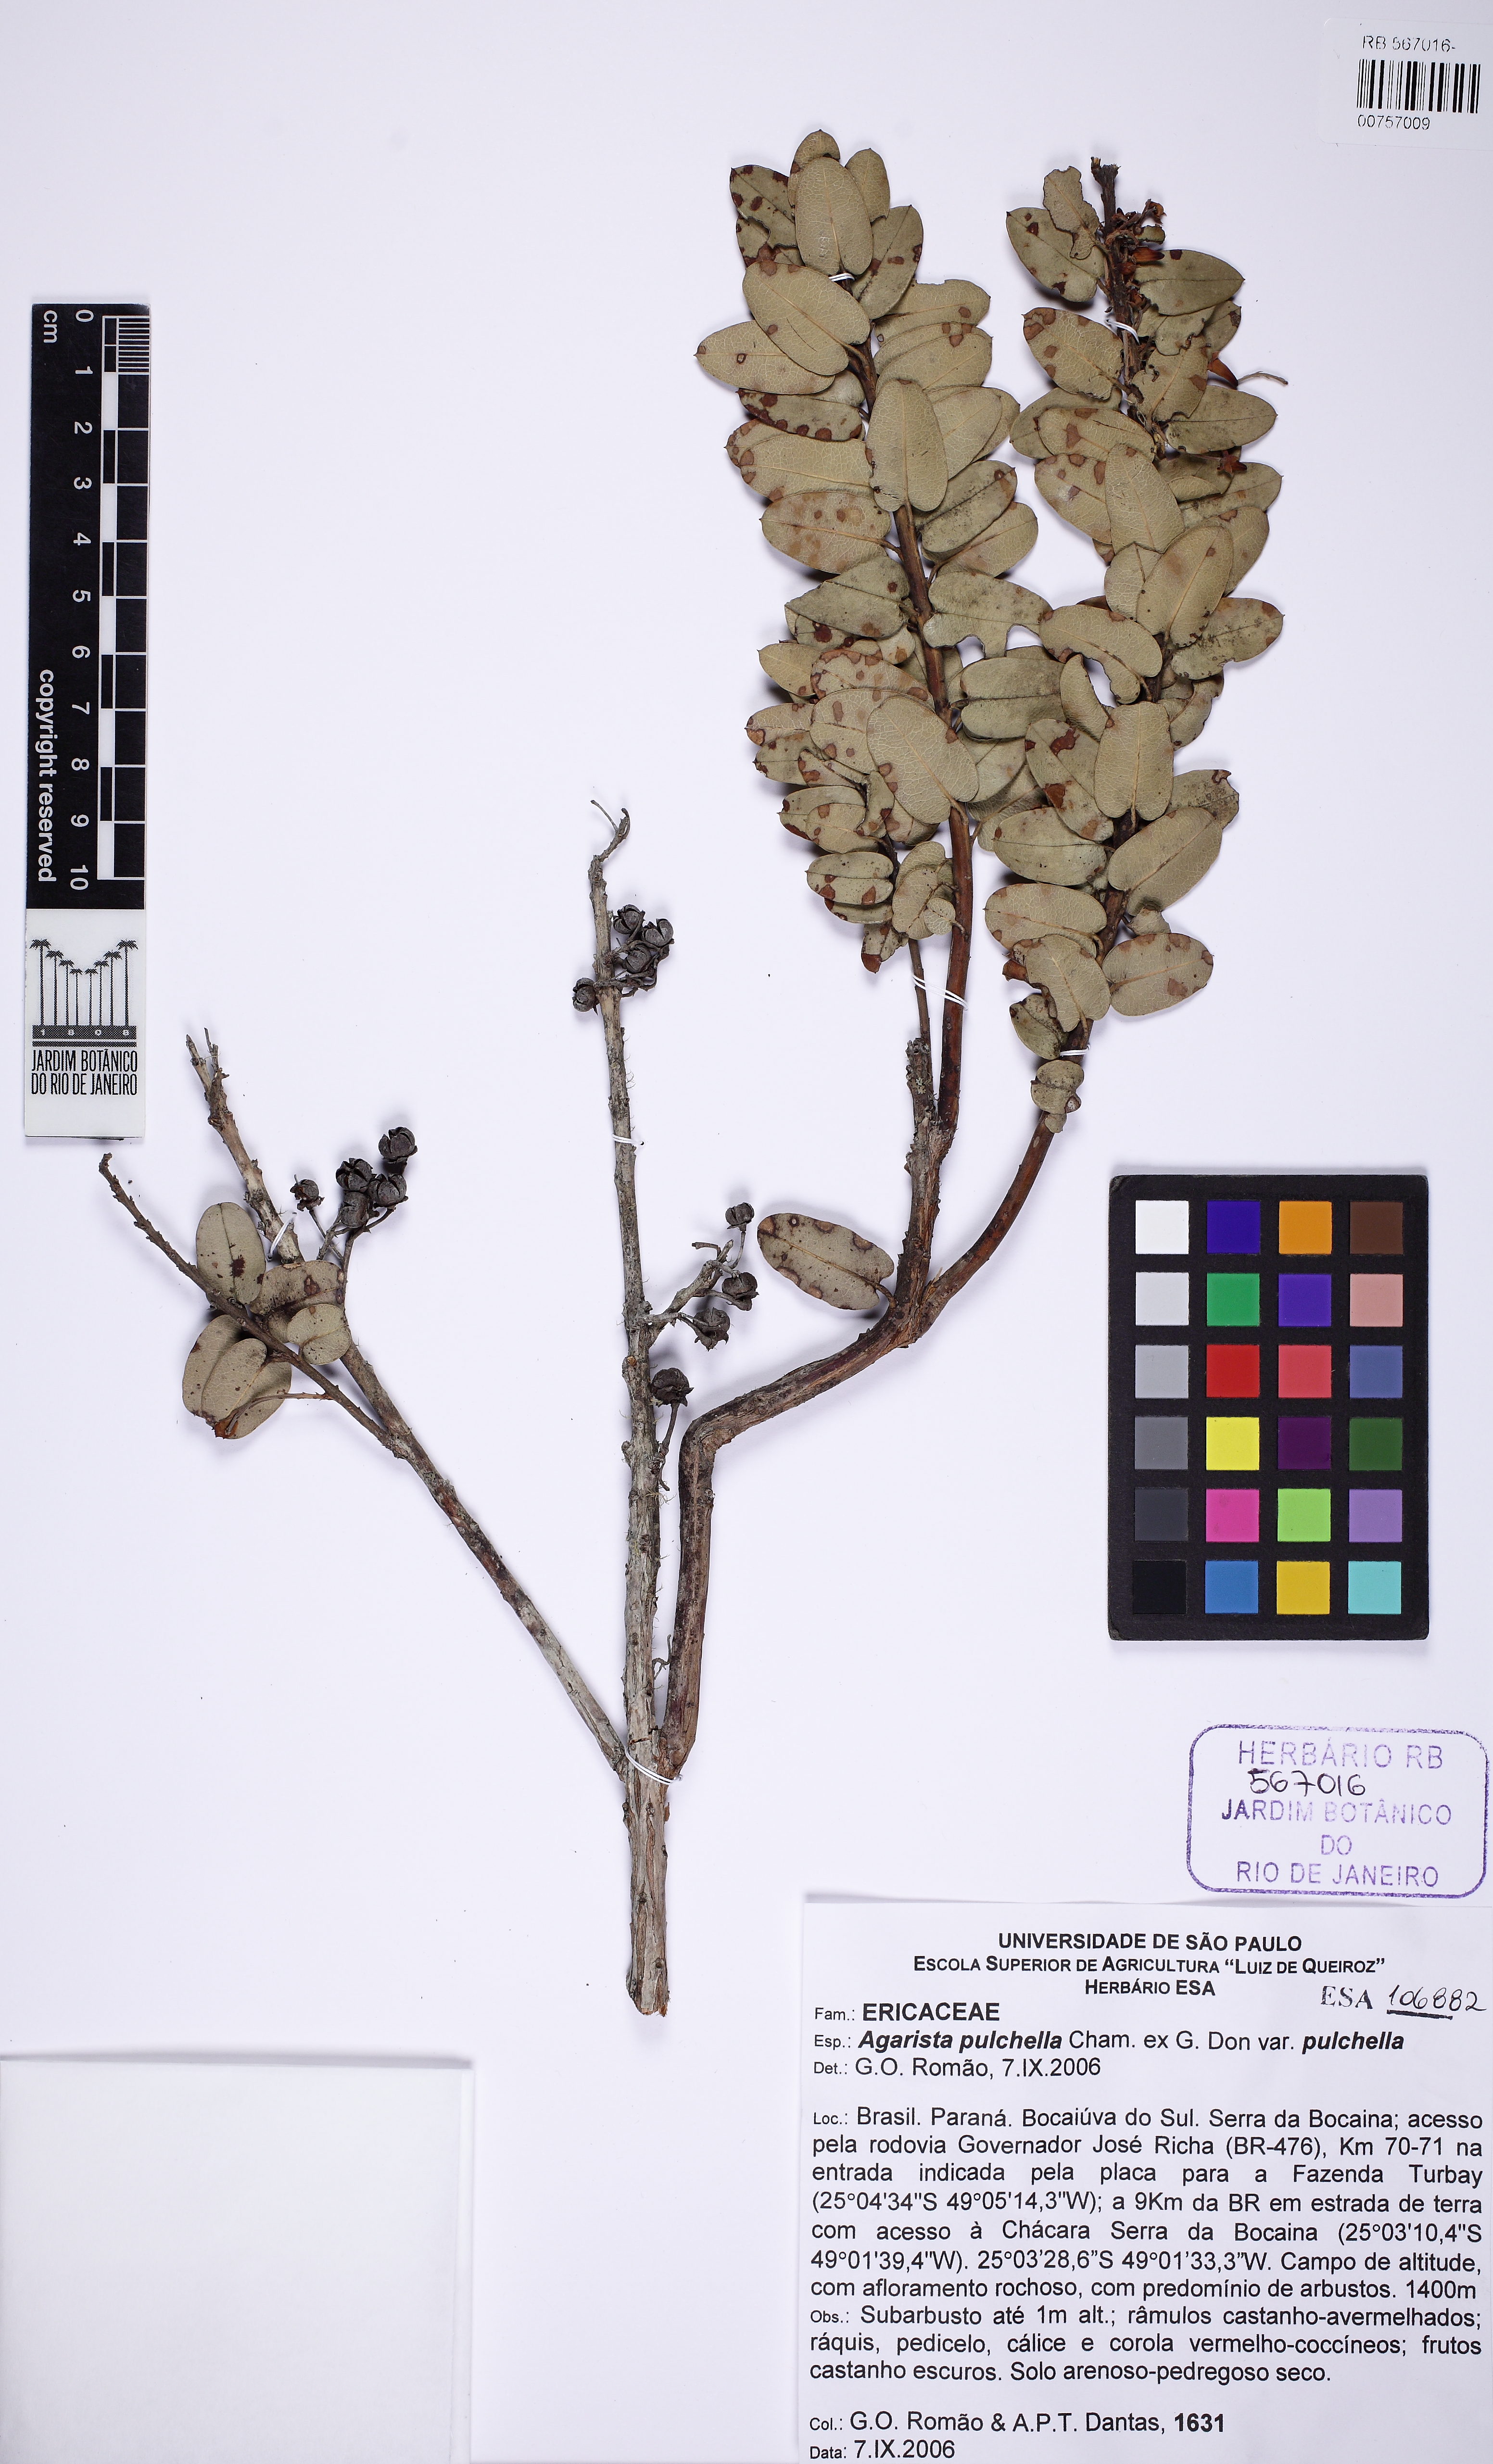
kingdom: Plantae
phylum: Tracheophyta
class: Magnoliopsida
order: Ericales
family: Ericaceae
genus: Agarista
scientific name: Agarista pulchella
